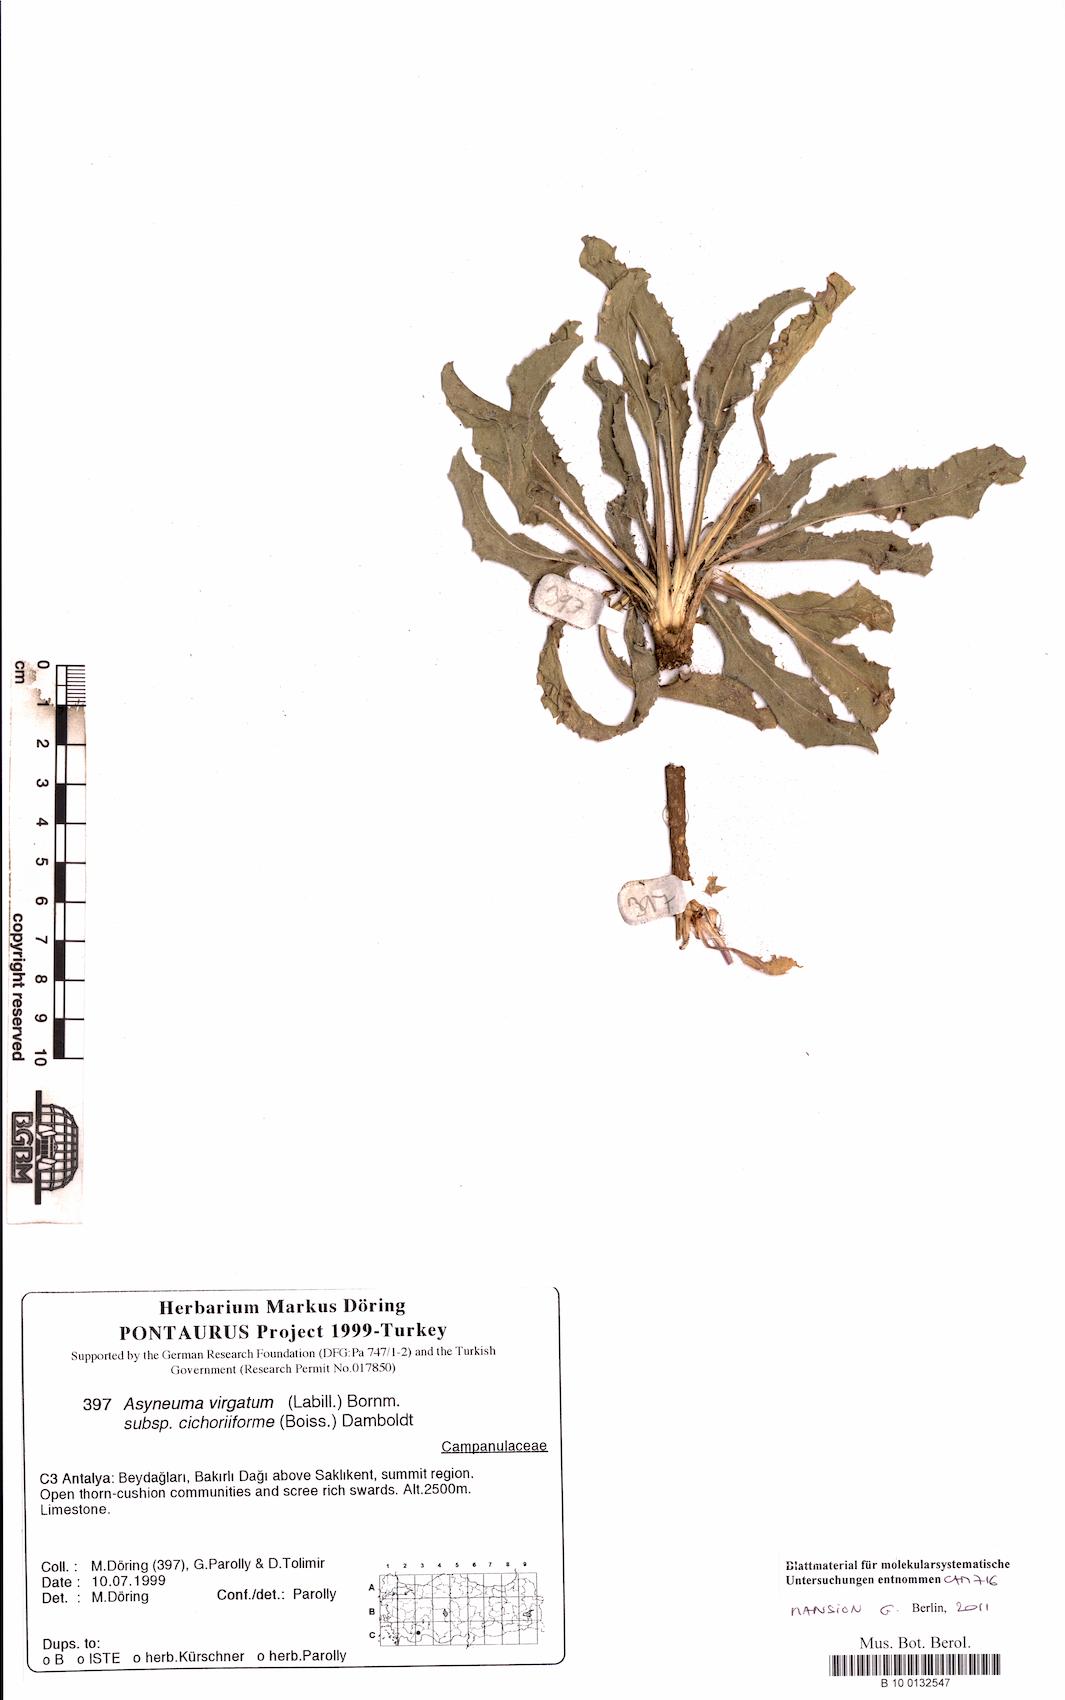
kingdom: Plantae
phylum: Tracheophyta
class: Magnoliopsida
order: Asterales
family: Campanulaceae
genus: Asyneuma
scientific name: Asyneuma virgatum
